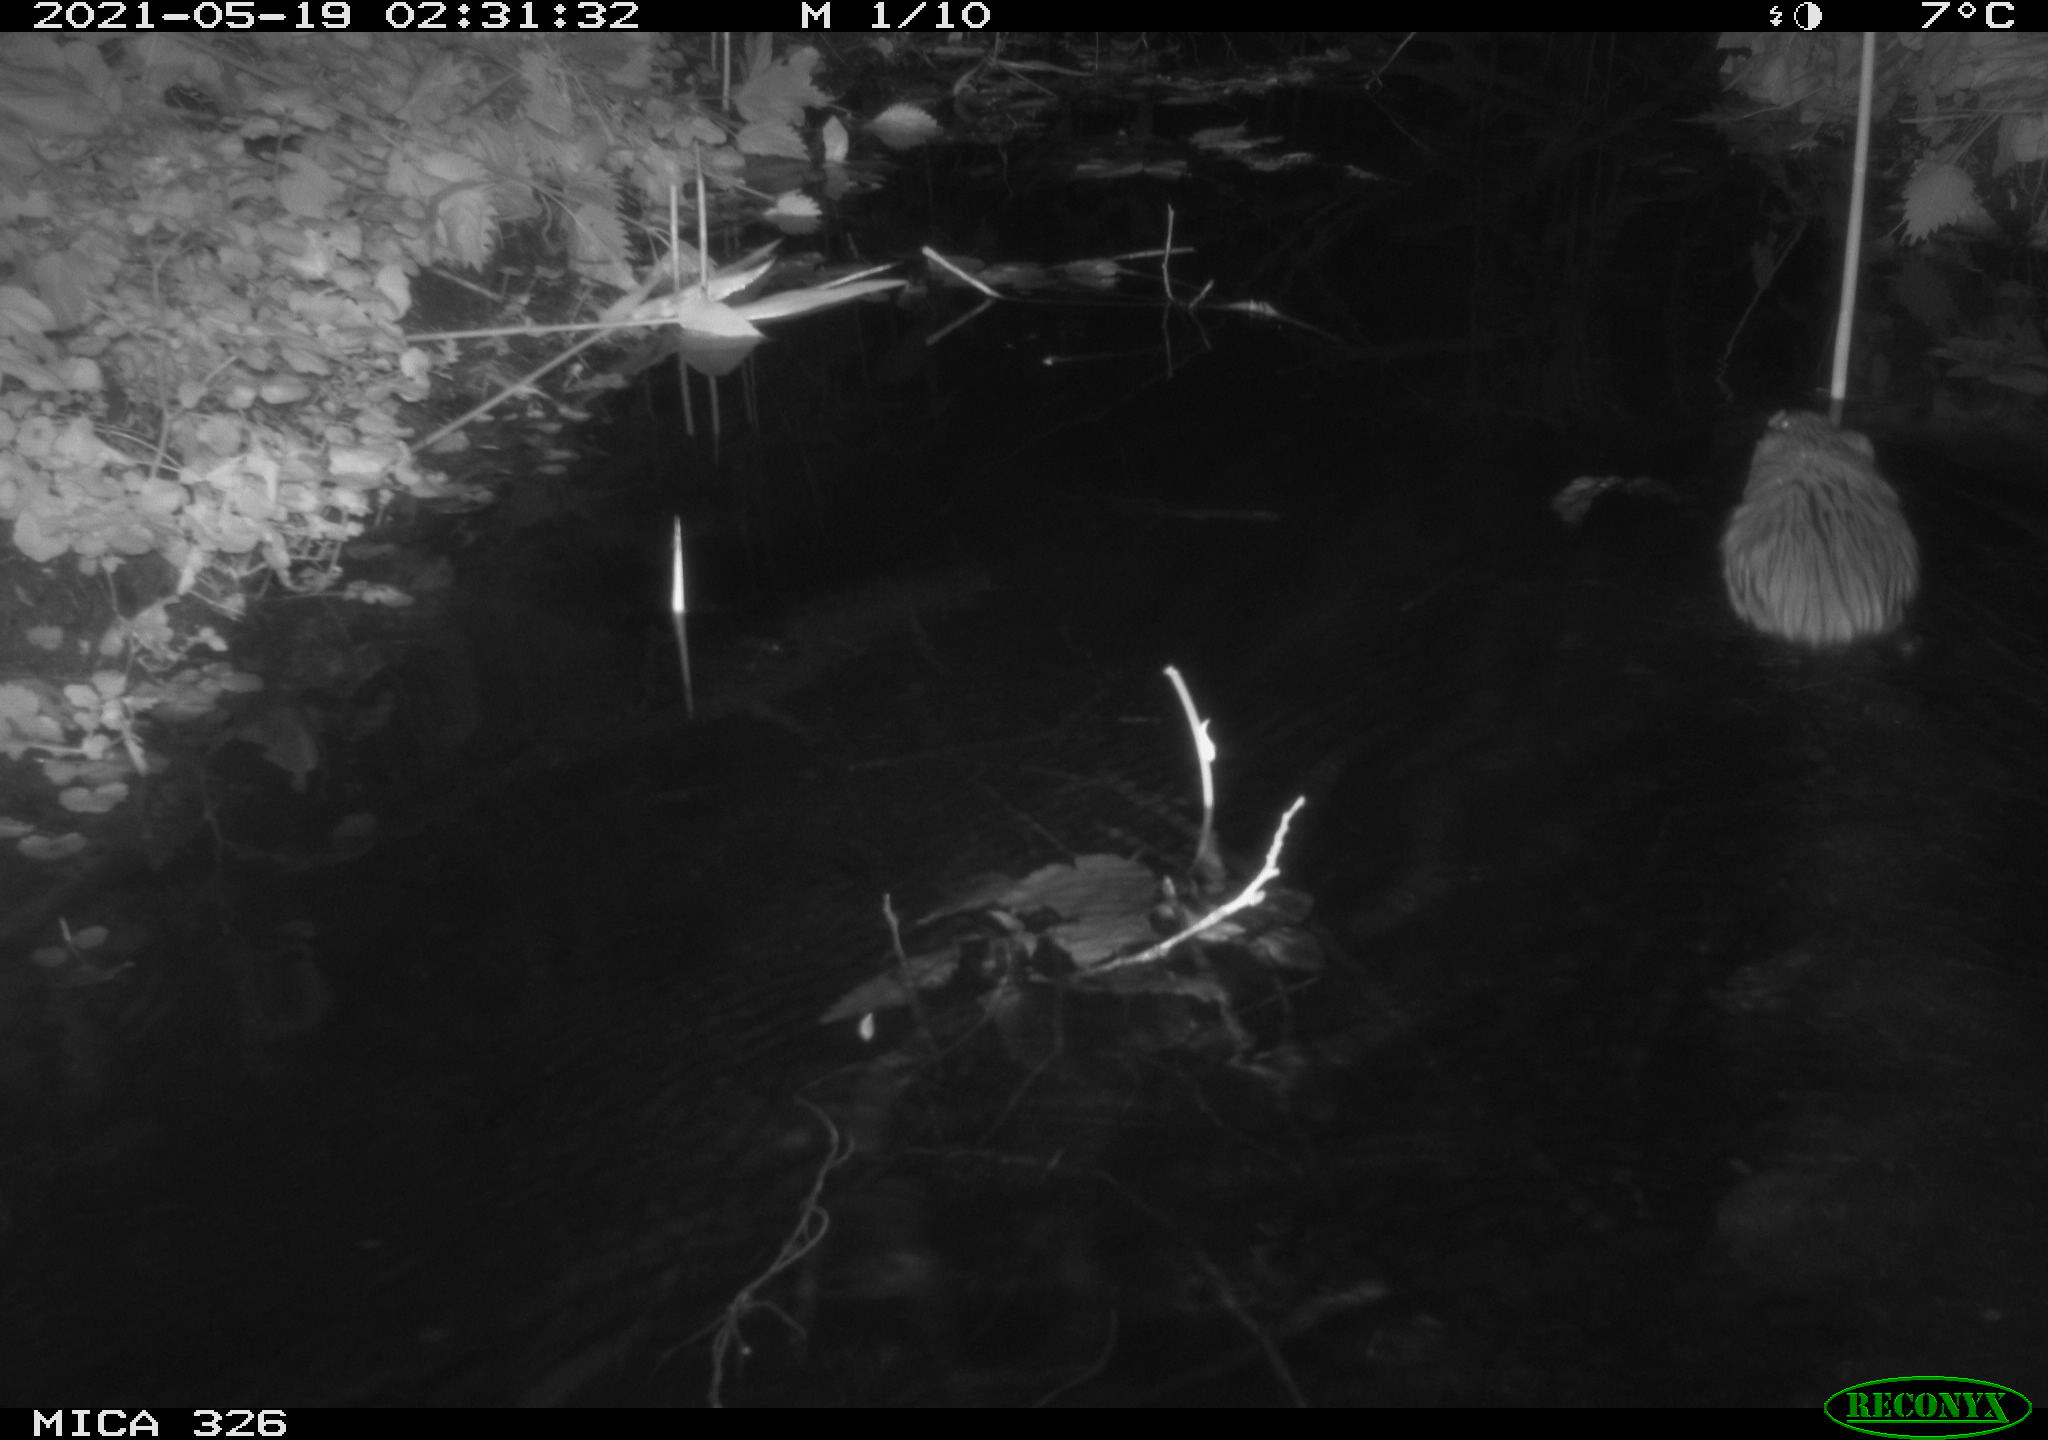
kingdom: Animalia
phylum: Chordata
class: Mammalia
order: Rodentia
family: Cricetidae
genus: Ondatra
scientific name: Ondatra zibethicus
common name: Muskrat
